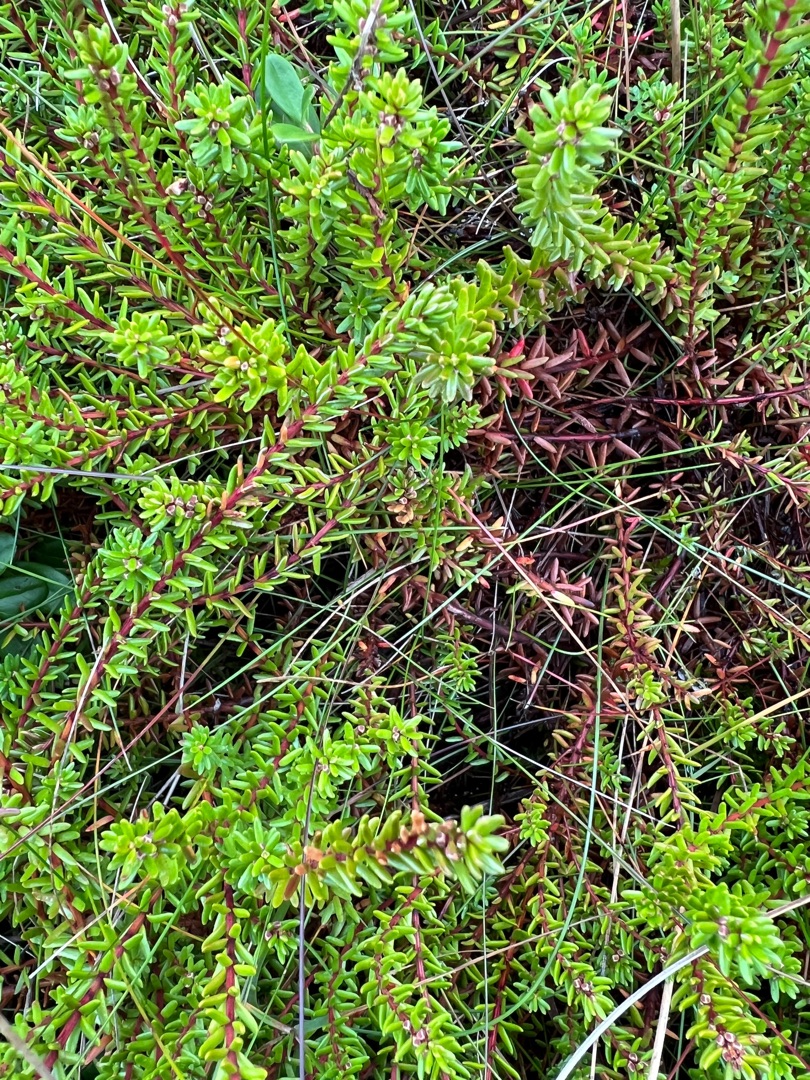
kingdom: Plantae
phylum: Tracheophyta
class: Magnoliopsida
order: Ericales
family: Ericaceae
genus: Empetrum
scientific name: Empetrum nigrum
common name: Revling
